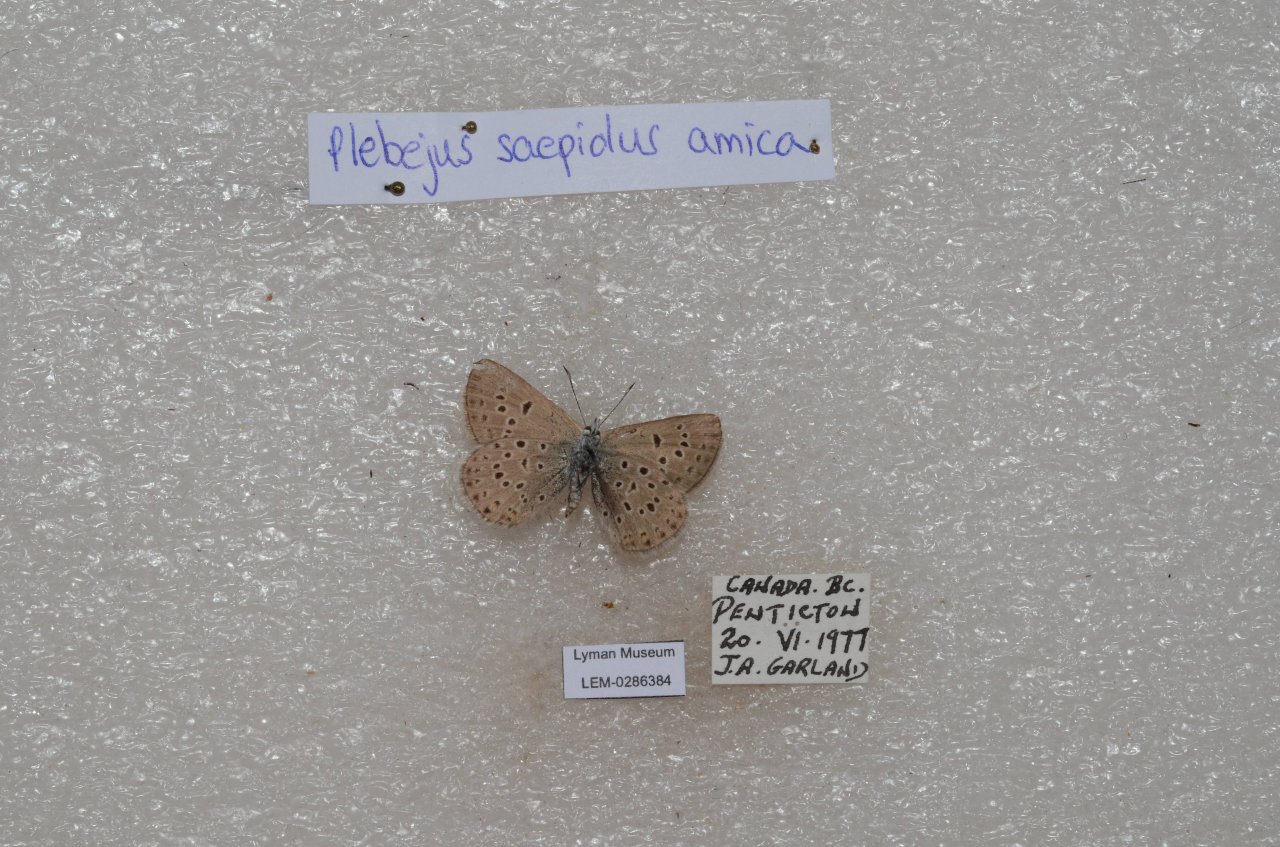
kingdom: Animalia
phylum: Arthropoda
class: Insecta
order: Lepidoptera
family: Lycaenidae
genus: Plebejus
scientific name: Plebejus saepiolus
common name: Greenish Blue
